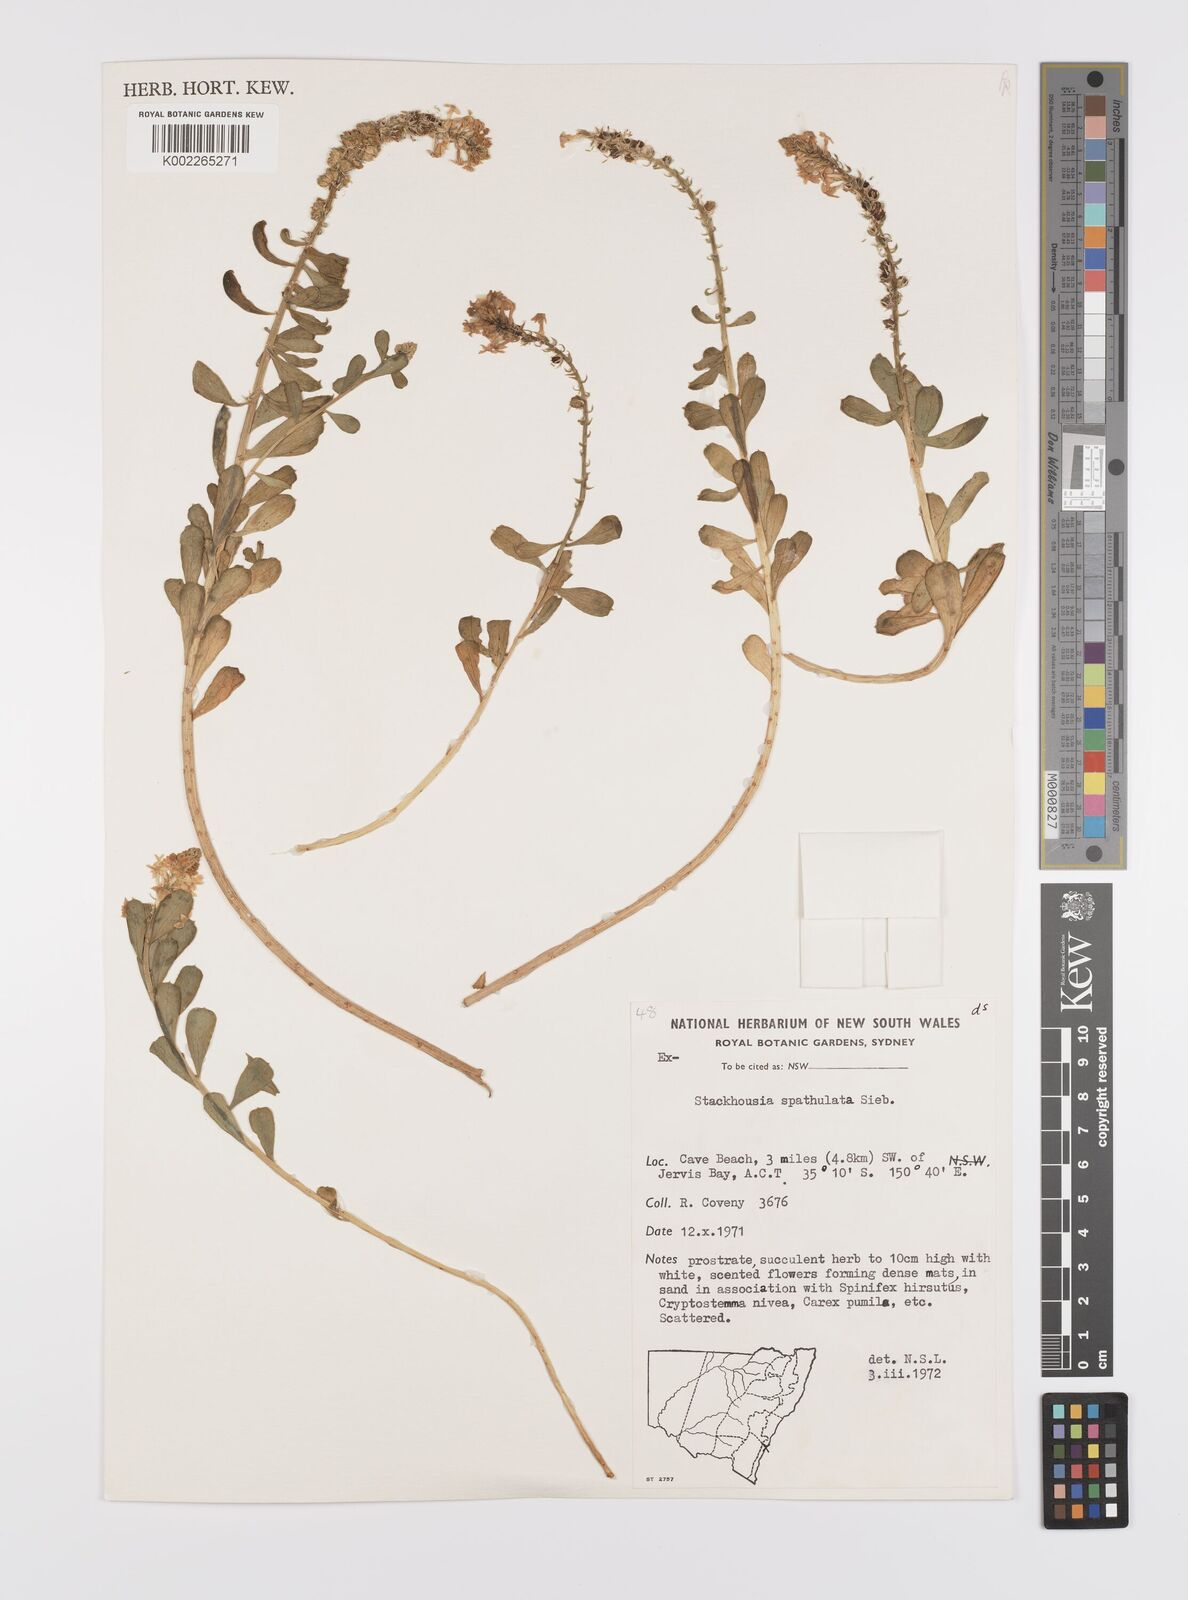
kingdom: Plantae
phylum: Tracheophyta
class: Magnoliopsida
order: Celastrales
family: Celastraceae
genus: Stackhousia
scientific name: Stackhousia spathulata
